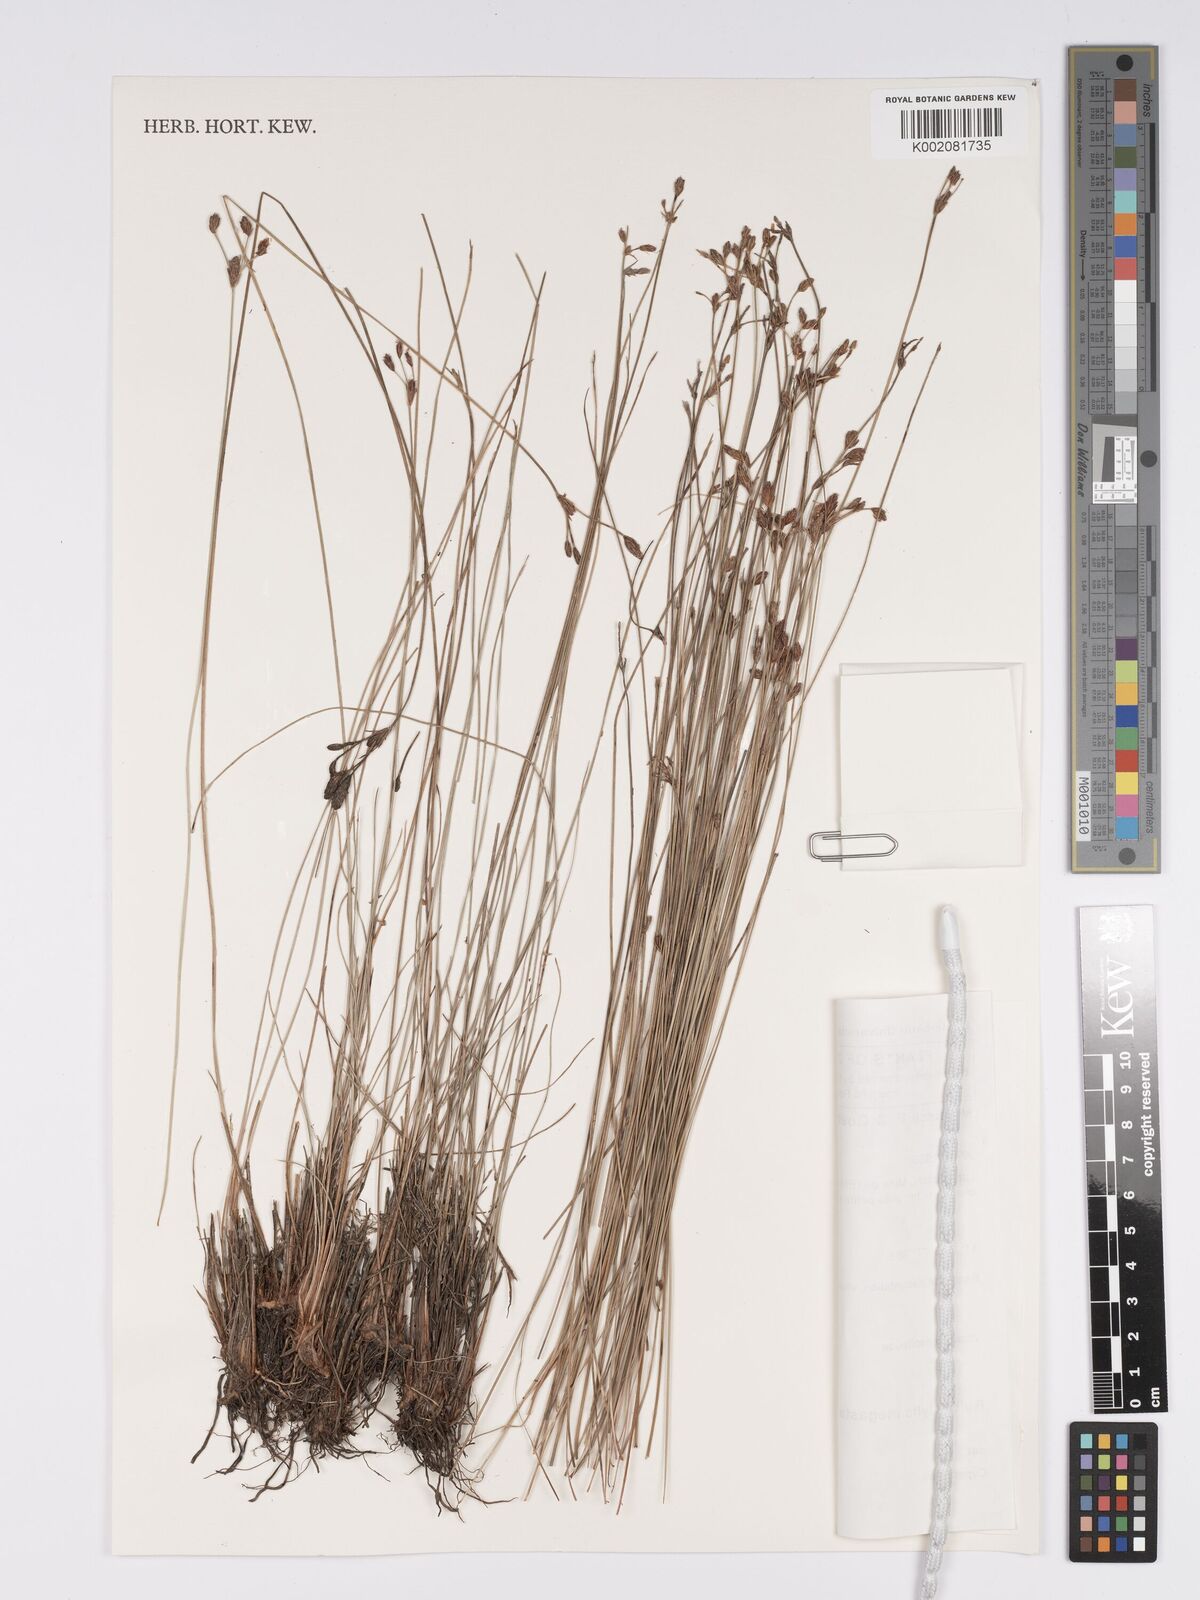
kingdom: Plantae
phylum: Tracheophyta
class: Liliopsida
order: Poales
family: Cyperaceae
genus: Bulbostylis
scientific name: Bulbostylis schoenoides
